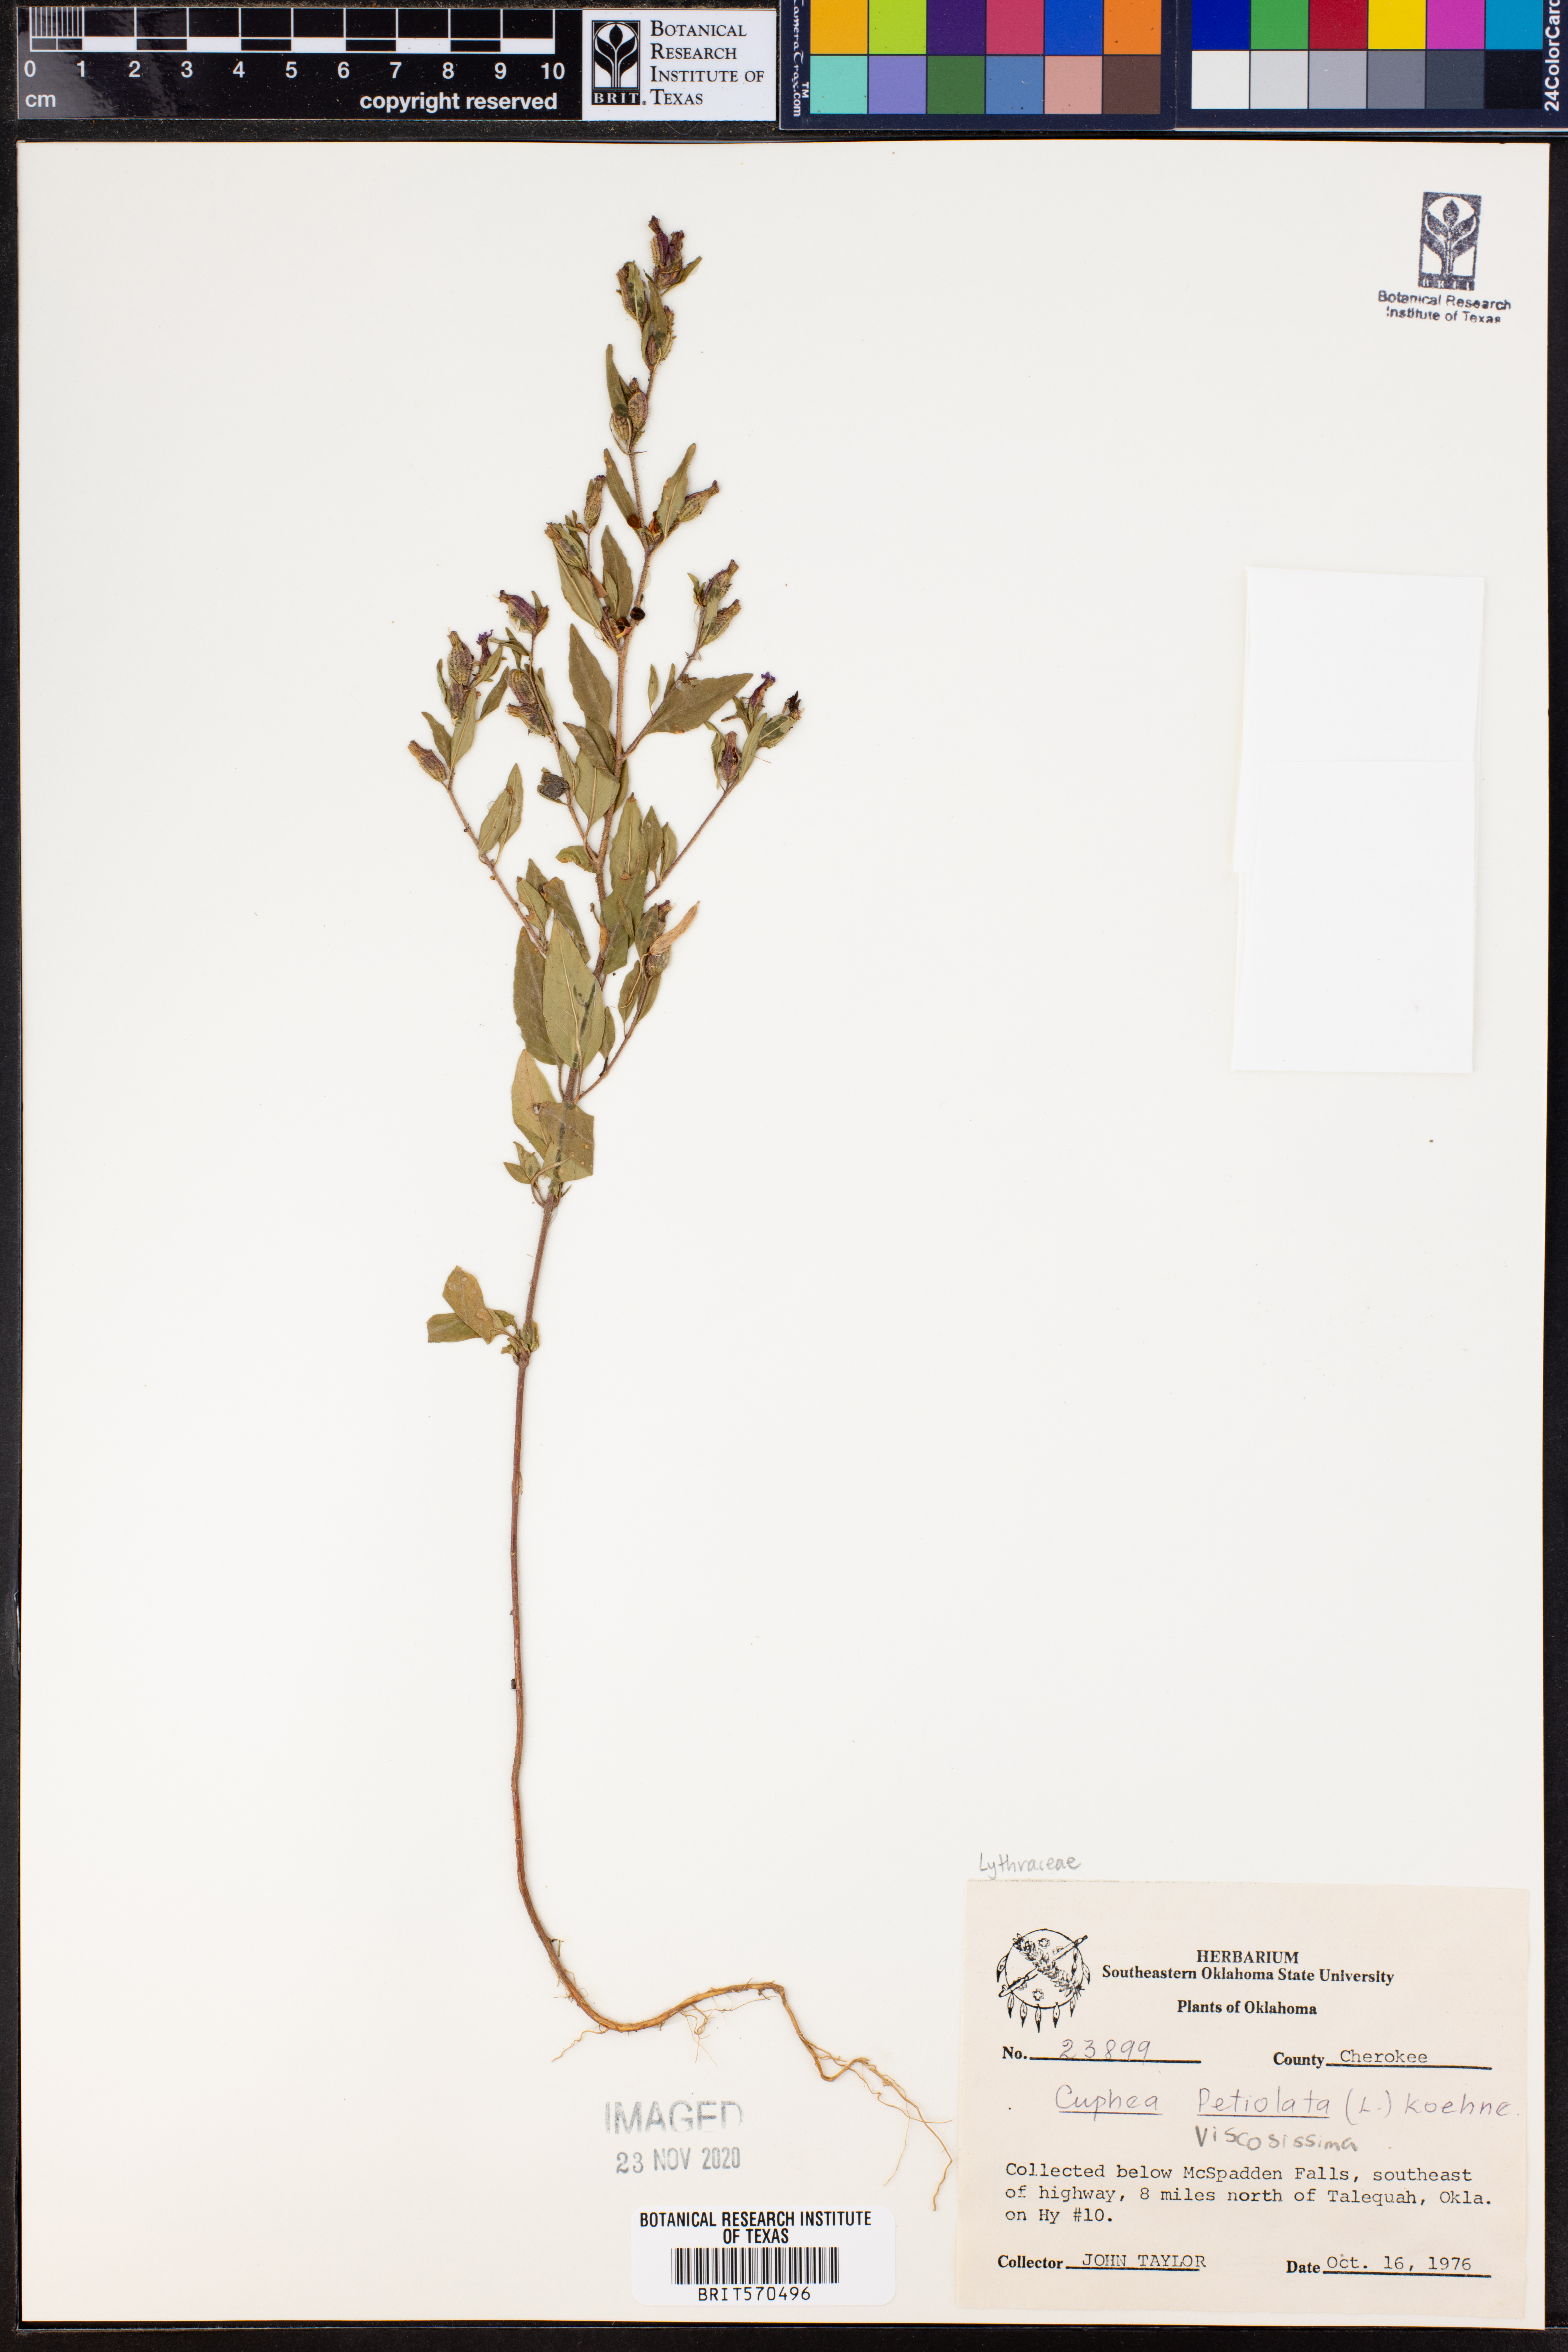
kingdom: Plantae
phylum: Tracheophyta
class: Magnoliopsida
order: Myrtales
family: Lythraceae
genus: Cuphea
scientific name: Cuphea viscosissima
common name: Clammy cuphea
